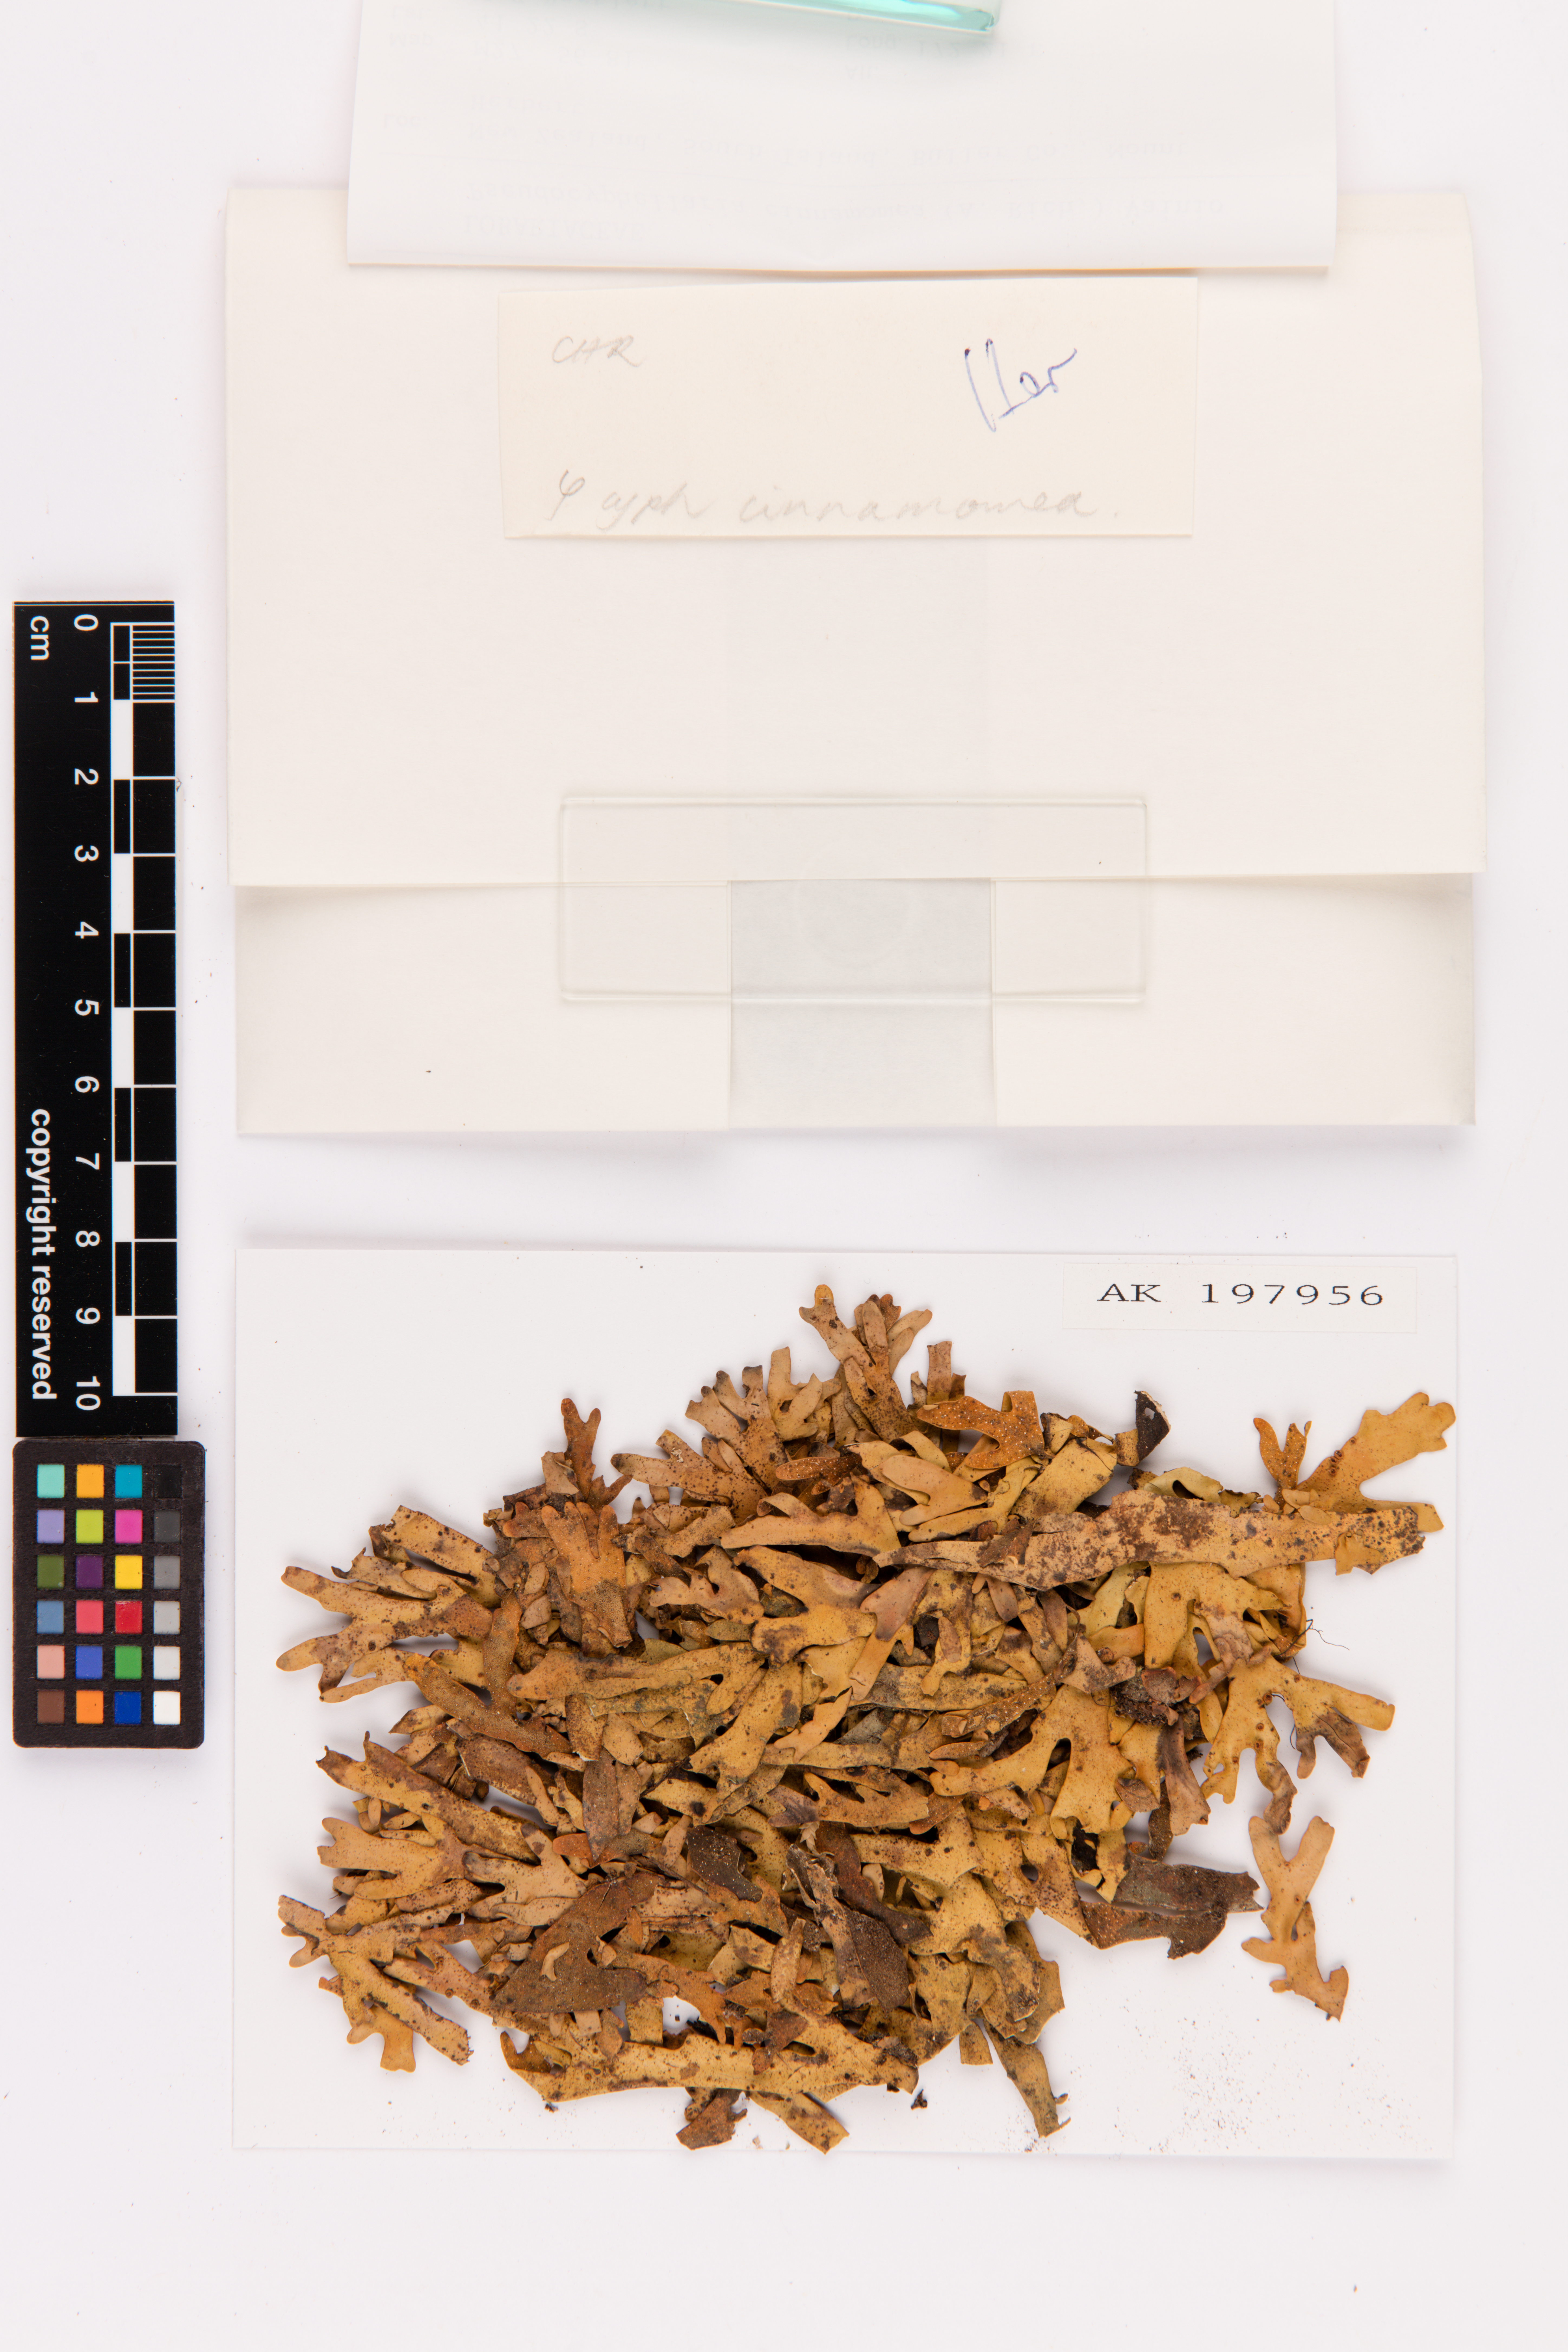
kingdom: Fungi
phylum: Ascomycota
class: Lecanoromycetes
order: Peltigerales
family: Lobariaceae
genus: Pseudocyphellaria
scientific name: Pseudocyphellaria cinnamomea
